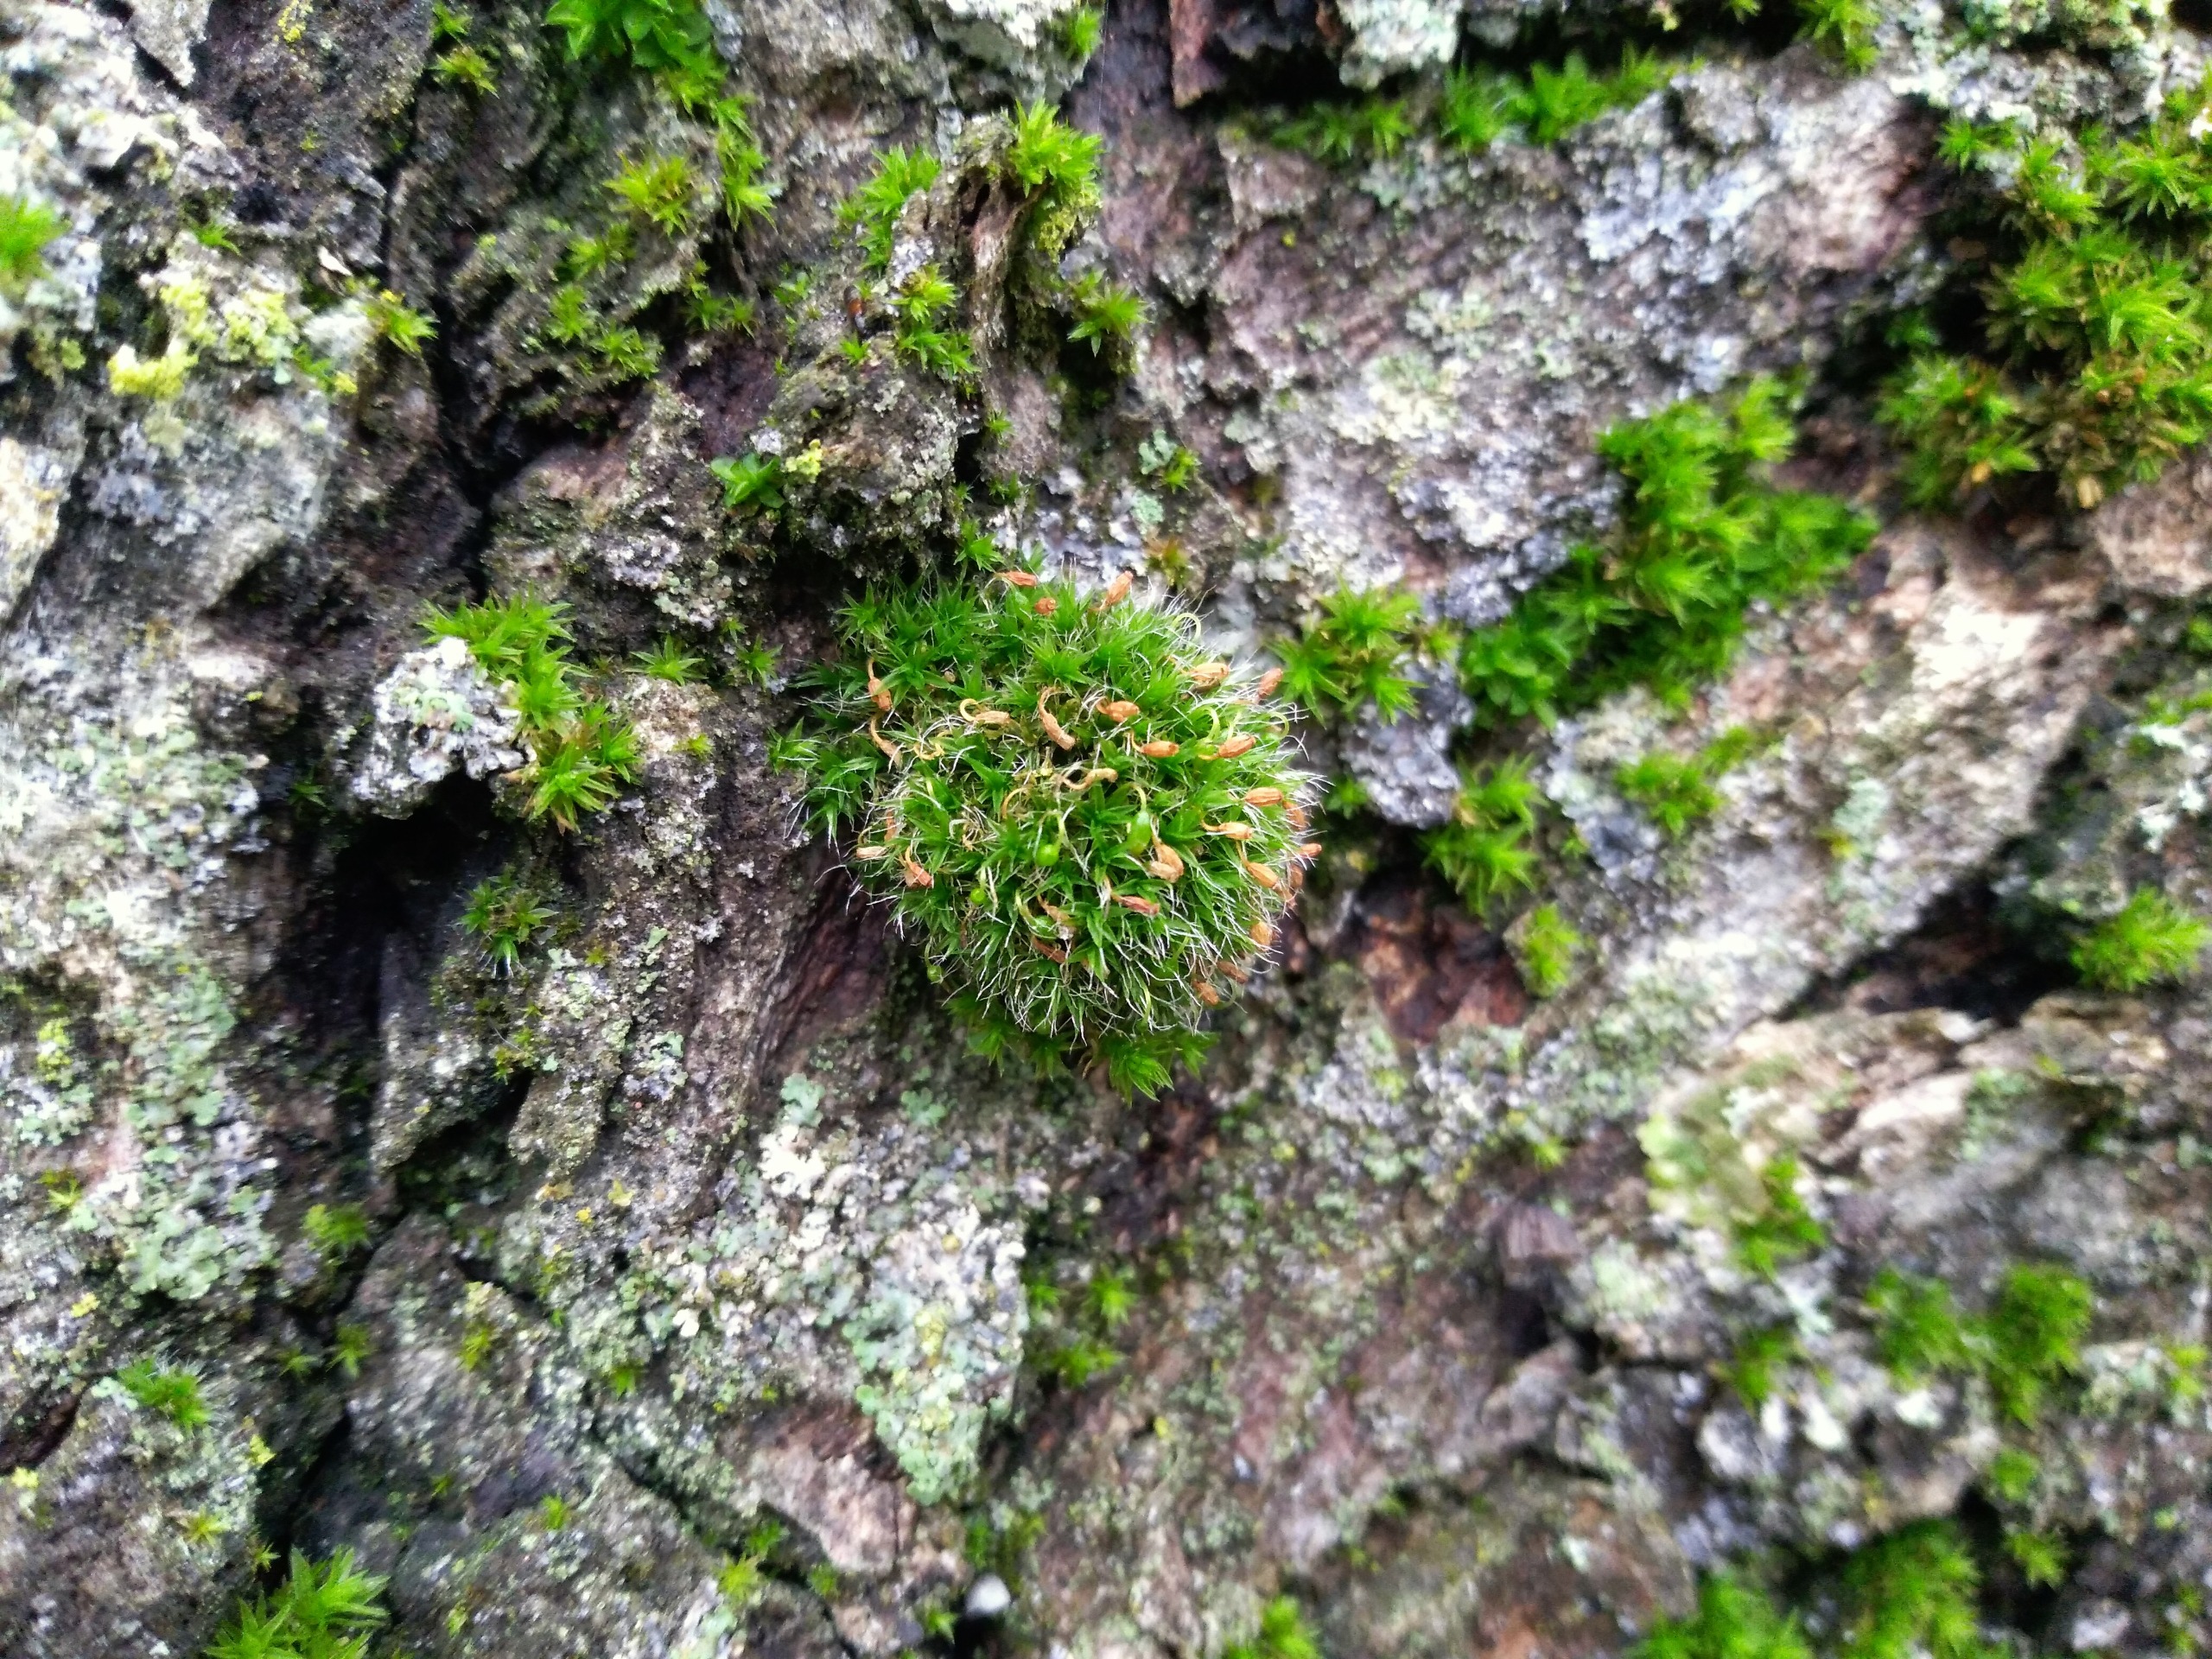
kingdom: Plantae
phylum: Bryophyta
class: Bryopsida
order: Grimmiales
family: Grimmiaceae
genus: Grimmia
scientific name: Grimmia pulvinata
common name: Pude-gråmos
